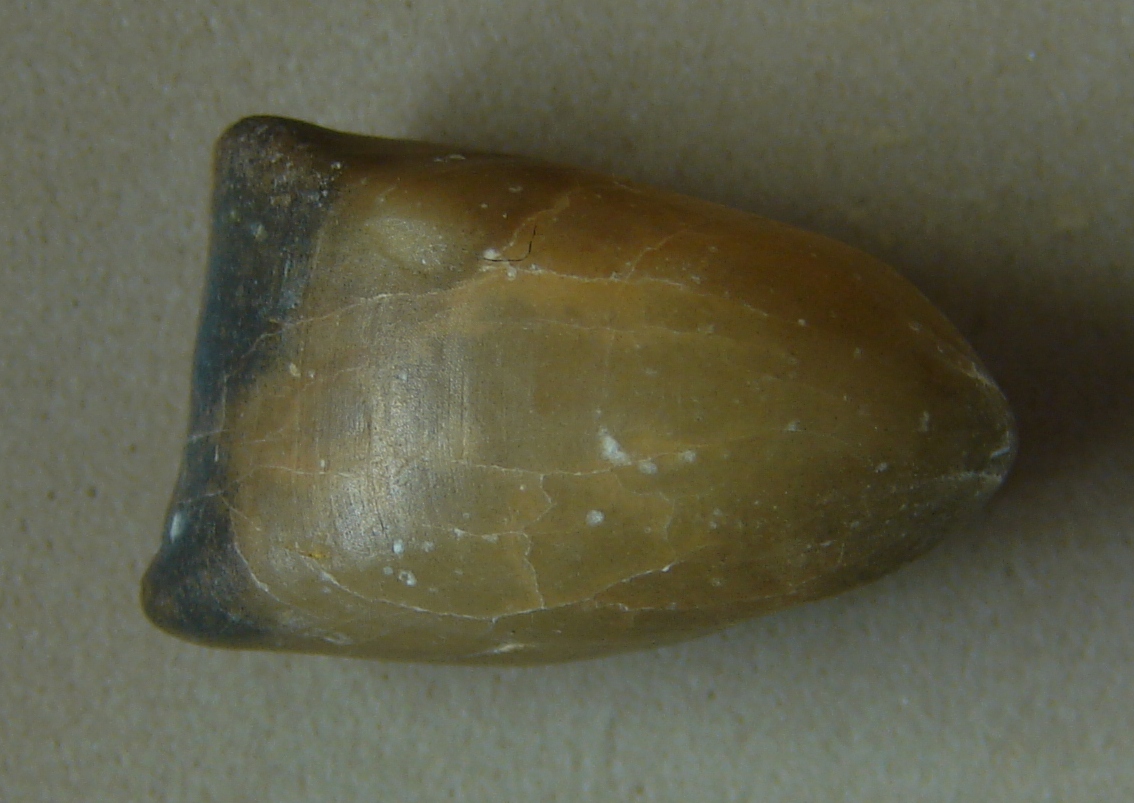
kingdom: Animalia
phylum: Brachiopoda
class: Rhynchonellata
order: Terebratulida
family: Zeilleriidae
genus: Digonella
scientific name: Digonella
